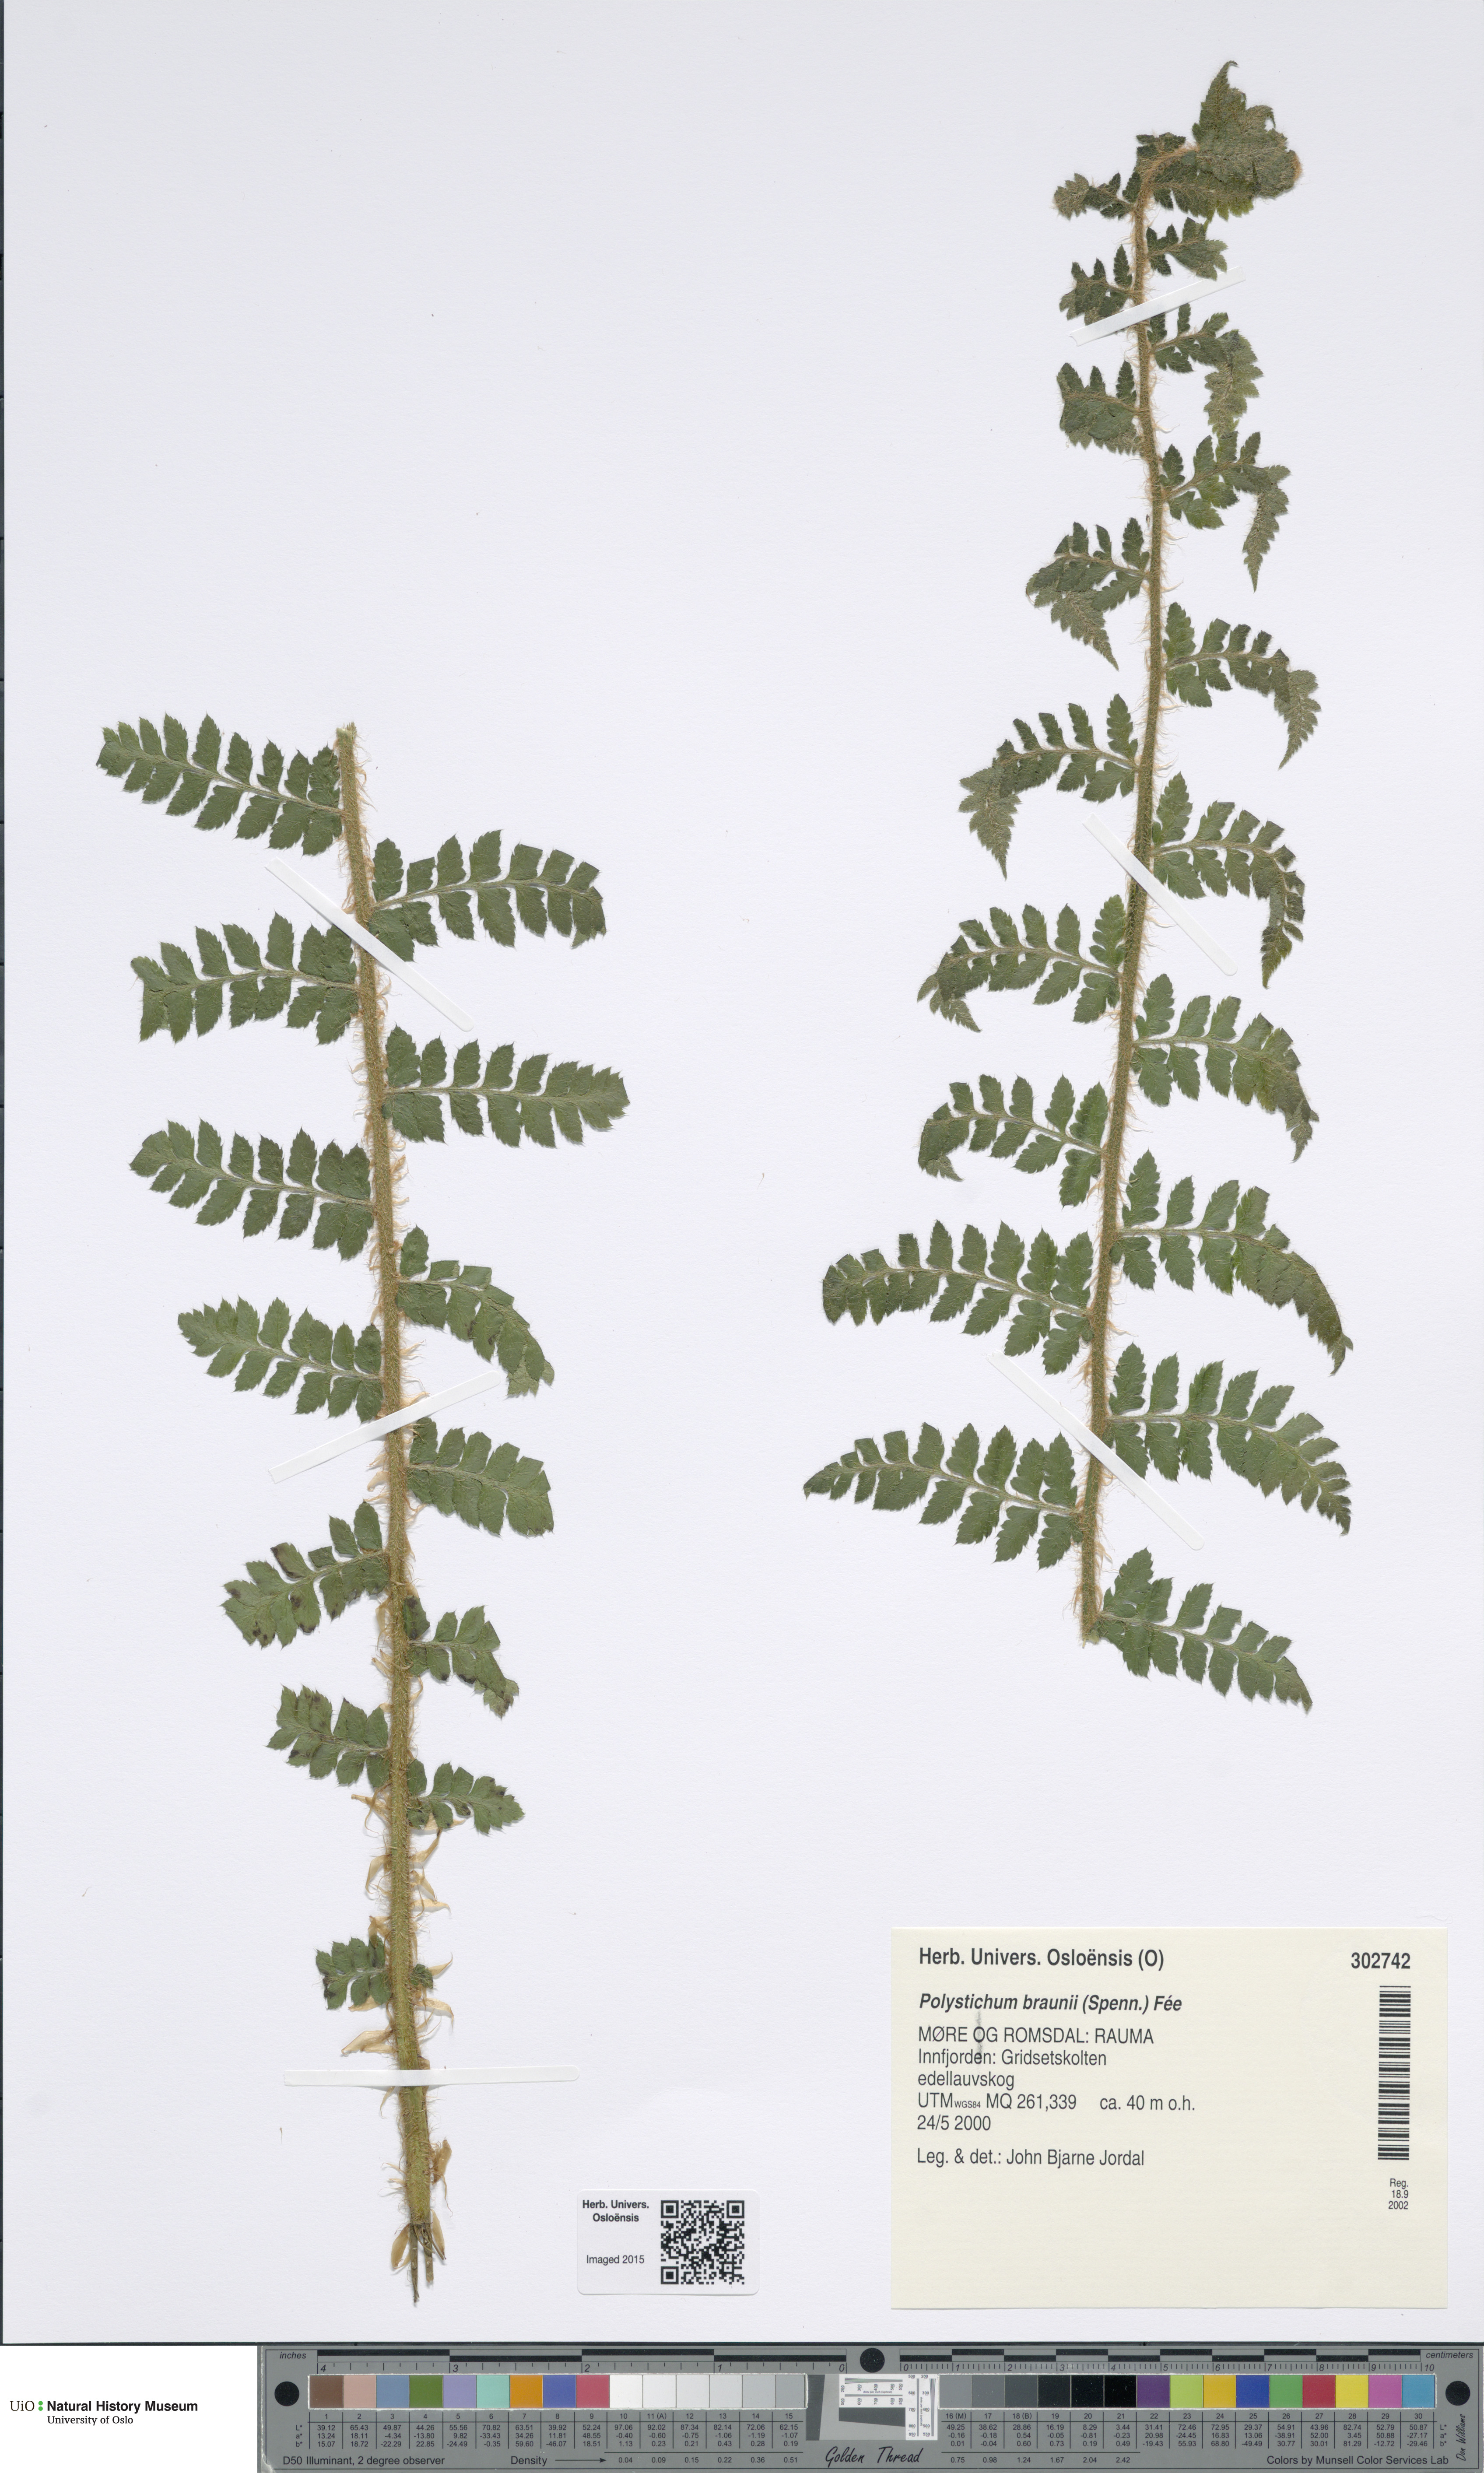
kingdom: Plantae
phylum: Tracheophyta
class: Polypodiopsida
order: Polypodiales
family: Dryopteridaceae
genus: Polystichum
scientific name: Polystichum braunii
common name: Braun's holly fern
